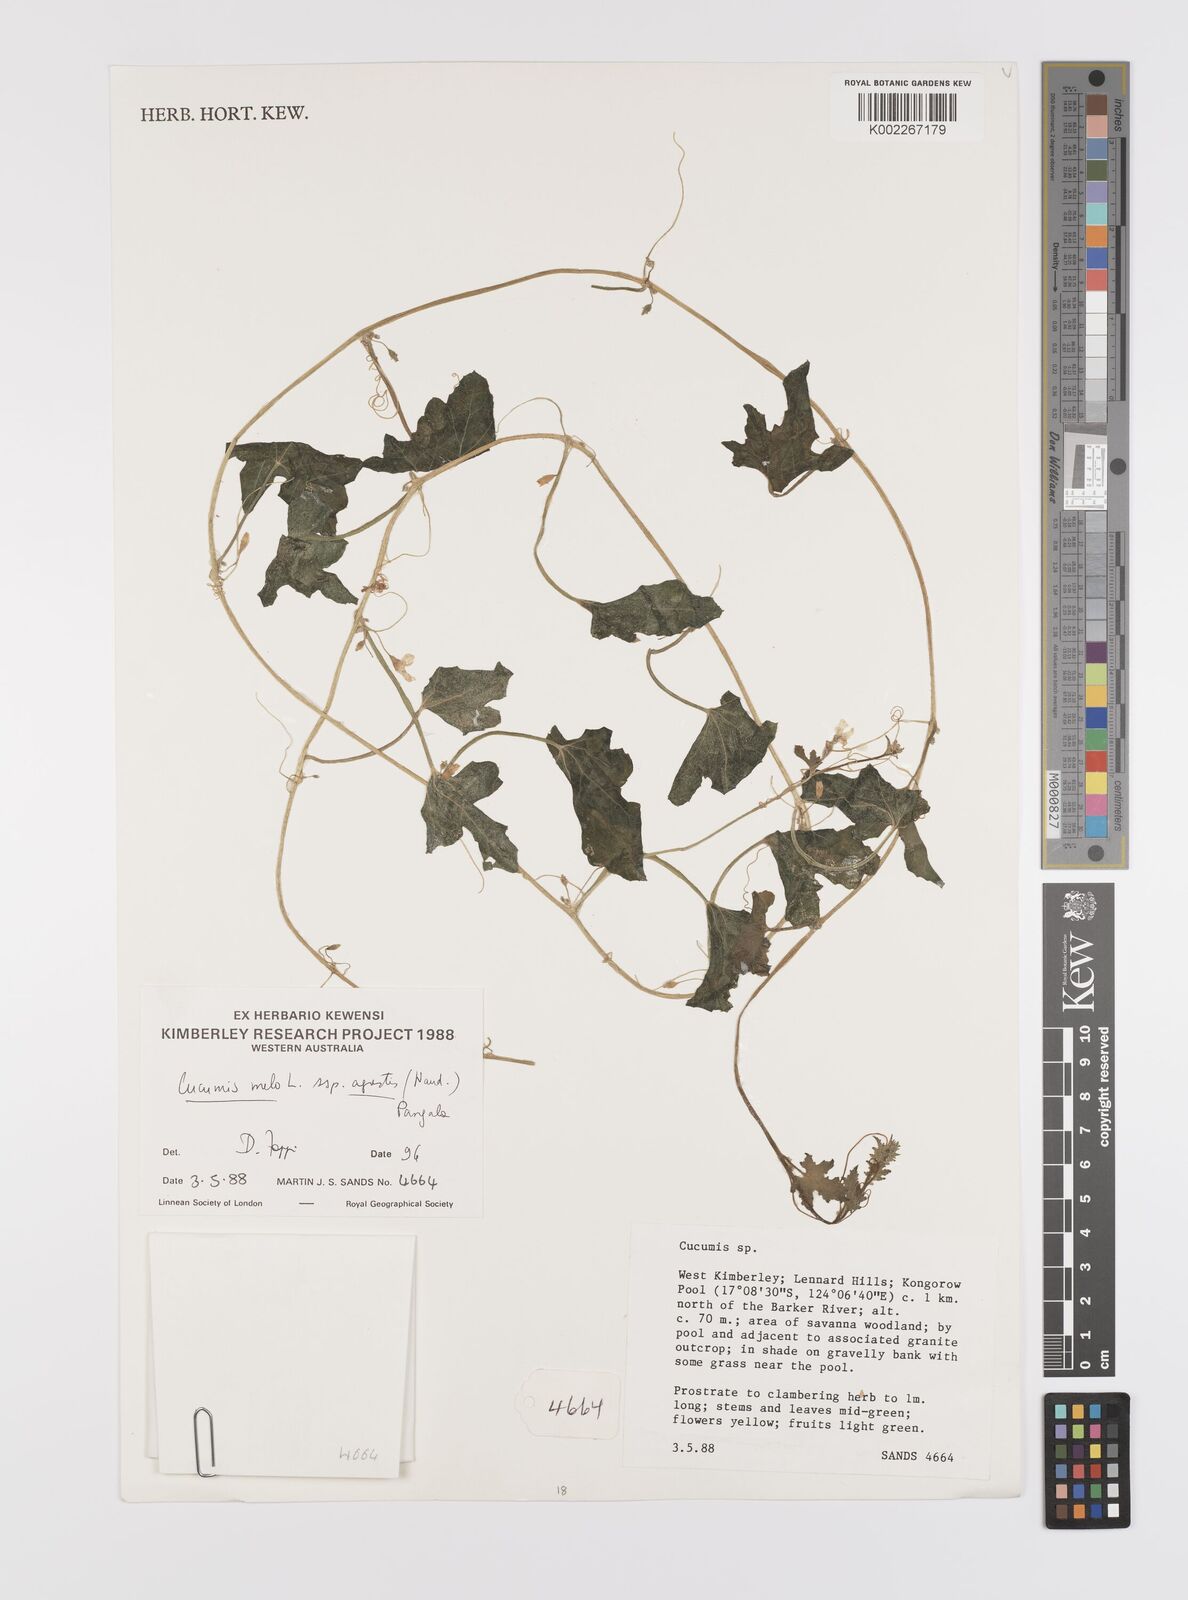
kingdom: Plantae
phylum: Tracheophyta
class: Magnoliopsida
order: Cucurbitales
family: Cucurbitaceae
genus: Cucumis
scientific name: Cucumis melo
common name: Melon
